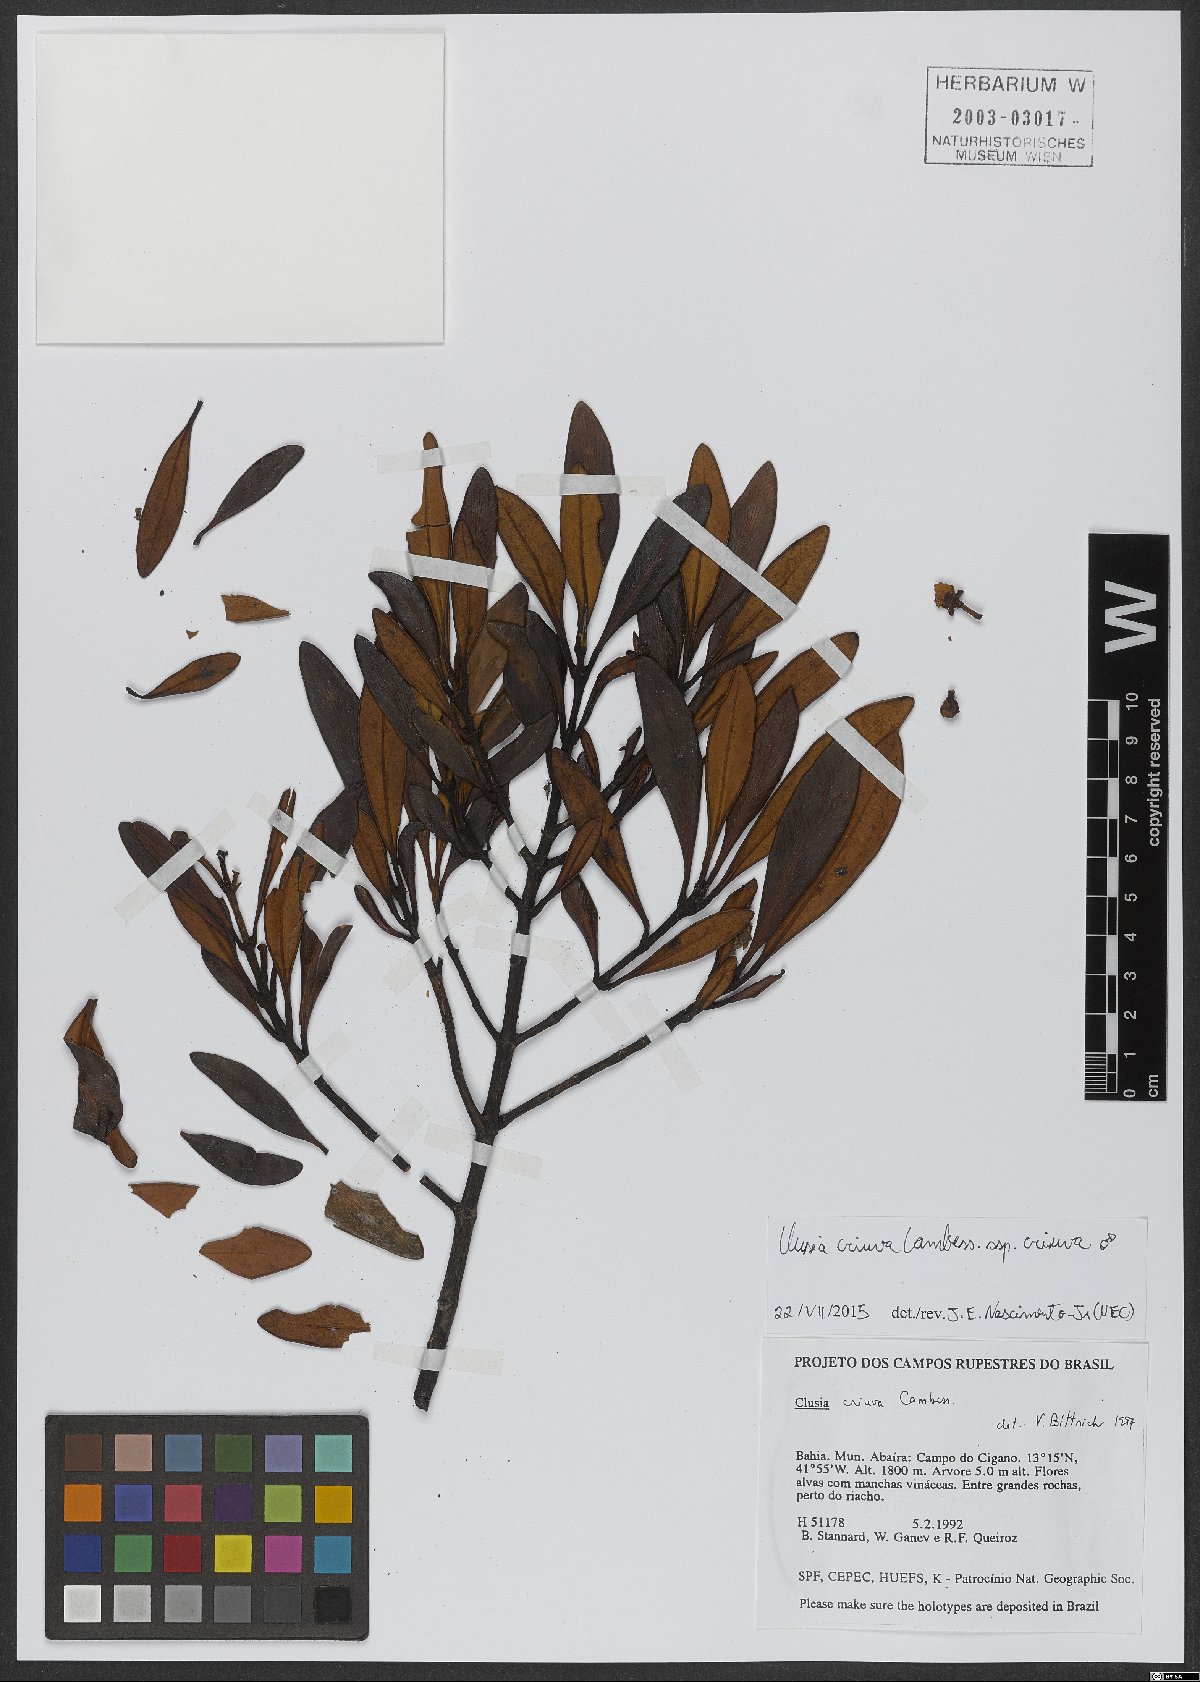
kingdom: Plantae
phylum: Tracheophyta
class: Magnoliopsida
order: Malpighiales
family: Clusiaceae
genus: Clusia
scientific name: Clusia criuva
